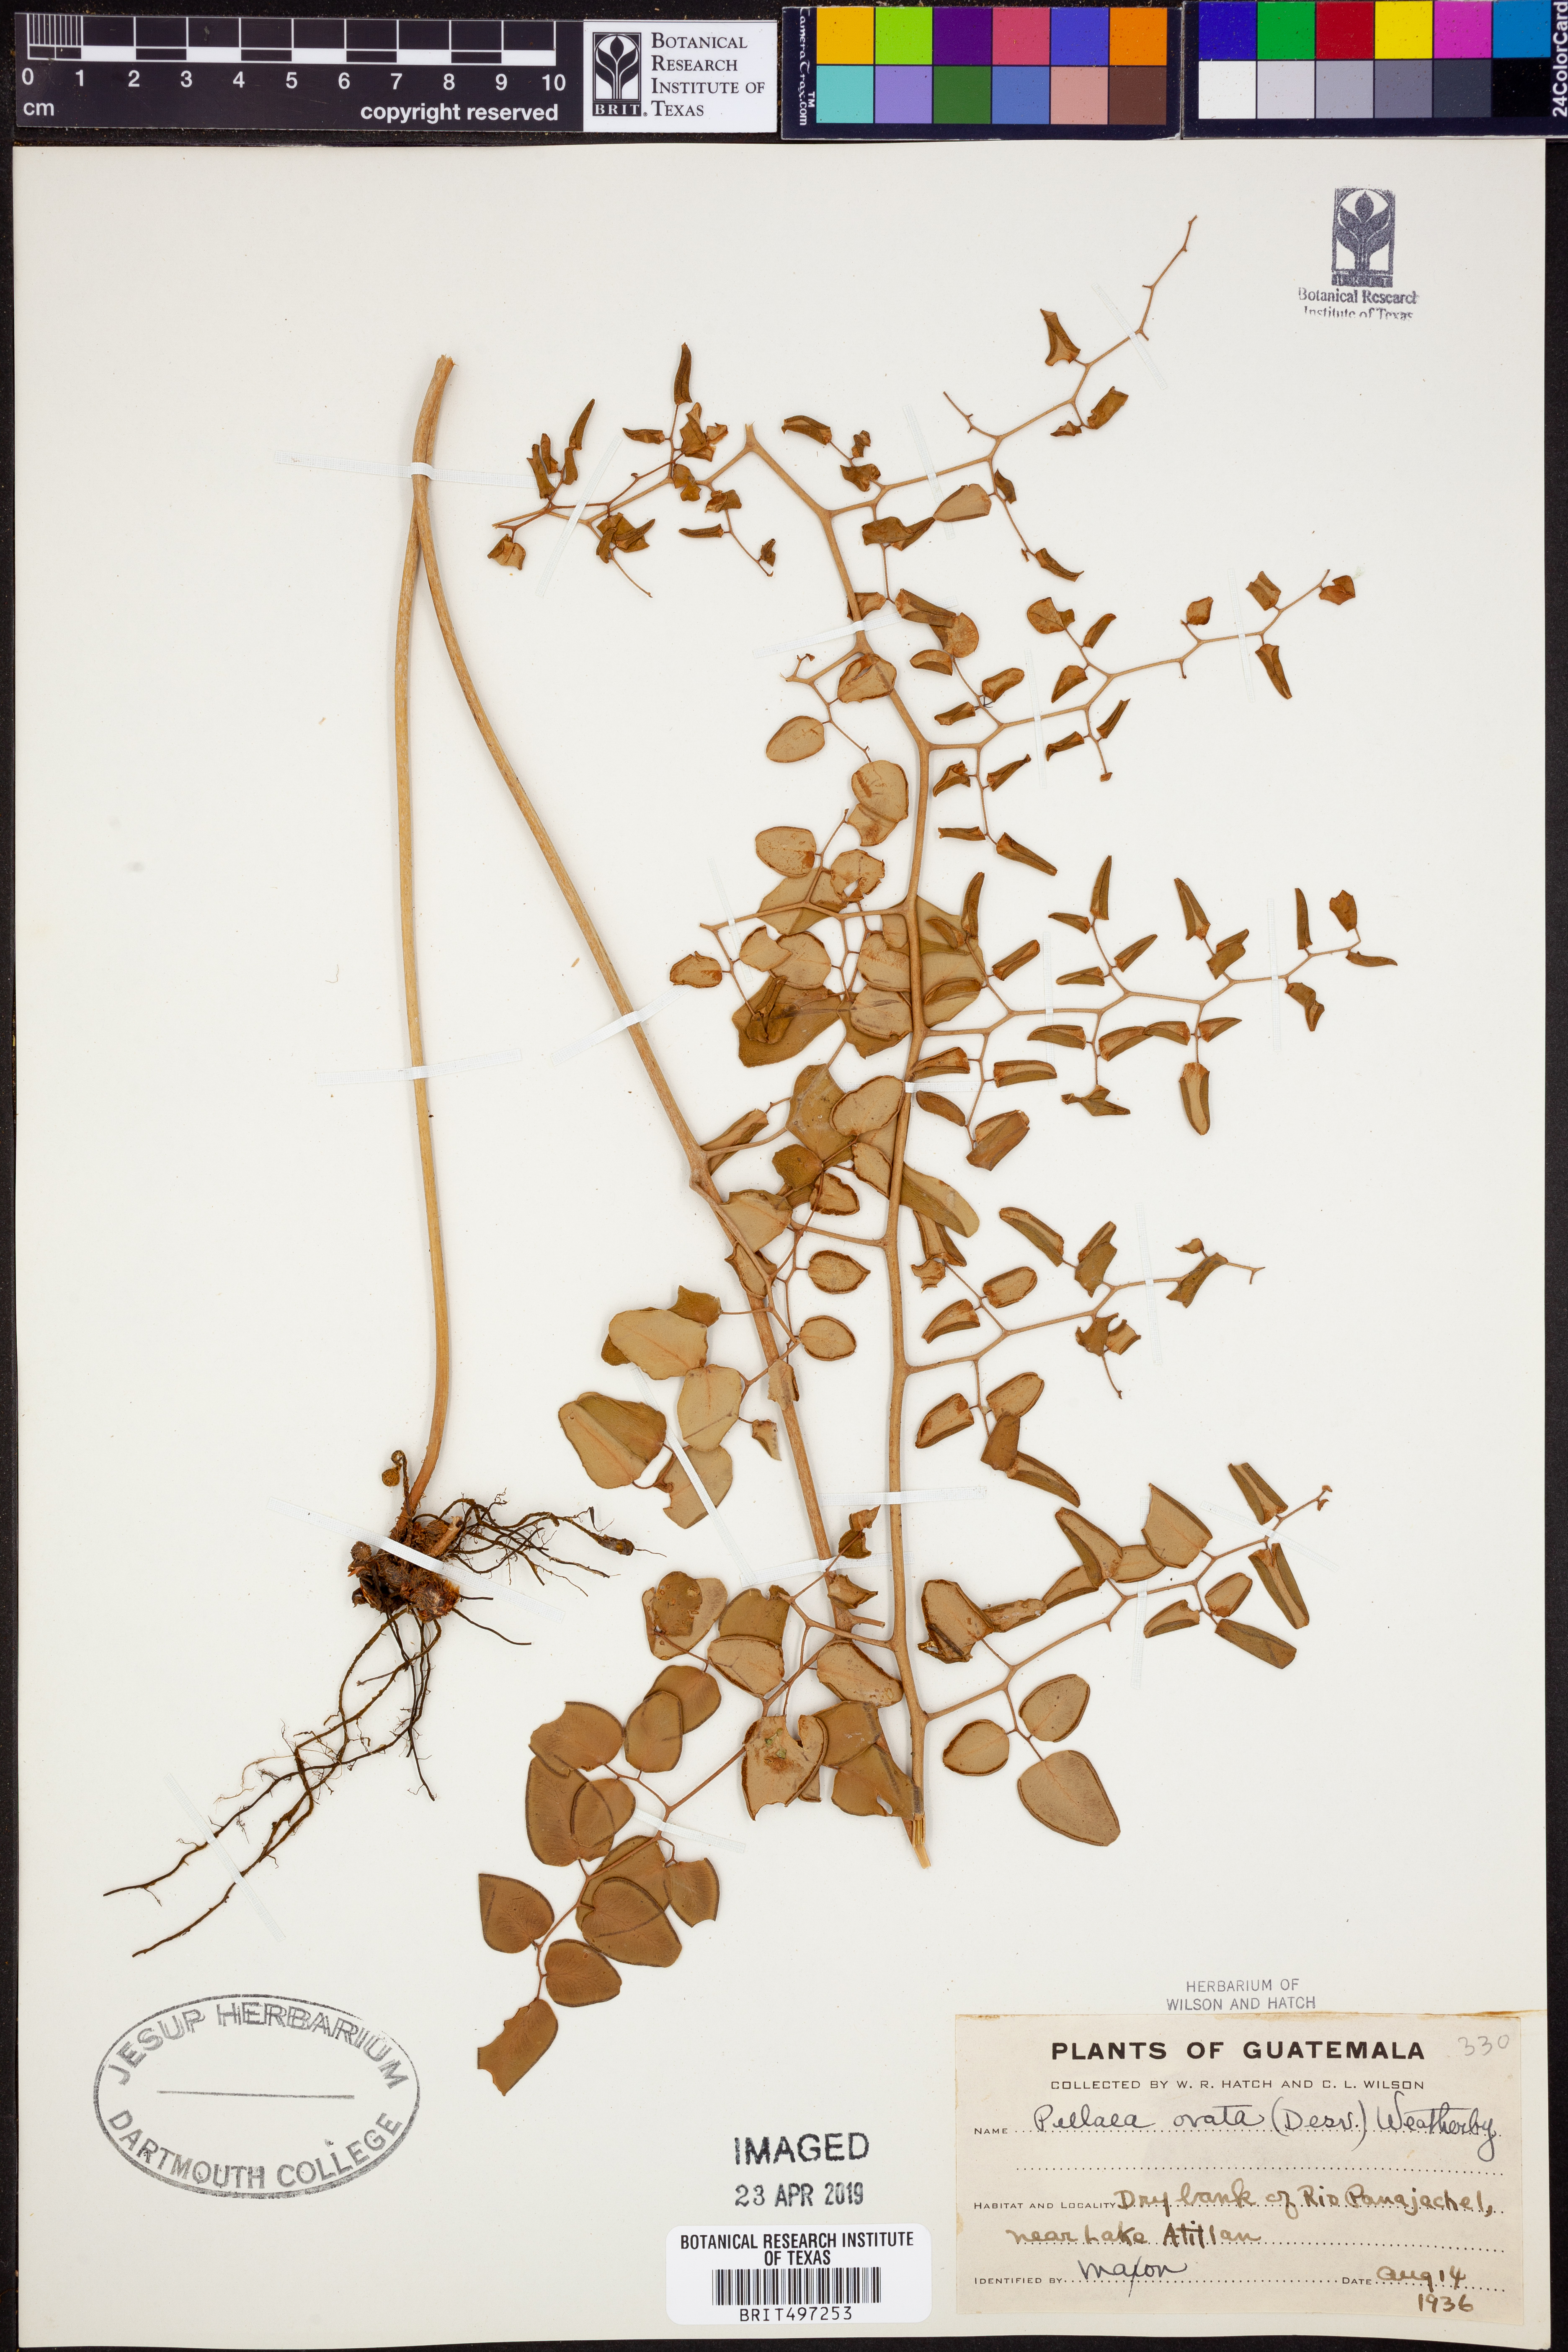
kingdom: Plantae
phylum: Tracheophyta
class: Polypodiopsida
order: Polypodiales
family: Pteridaceae
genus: Pellaea
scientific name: Pellaea ovata
